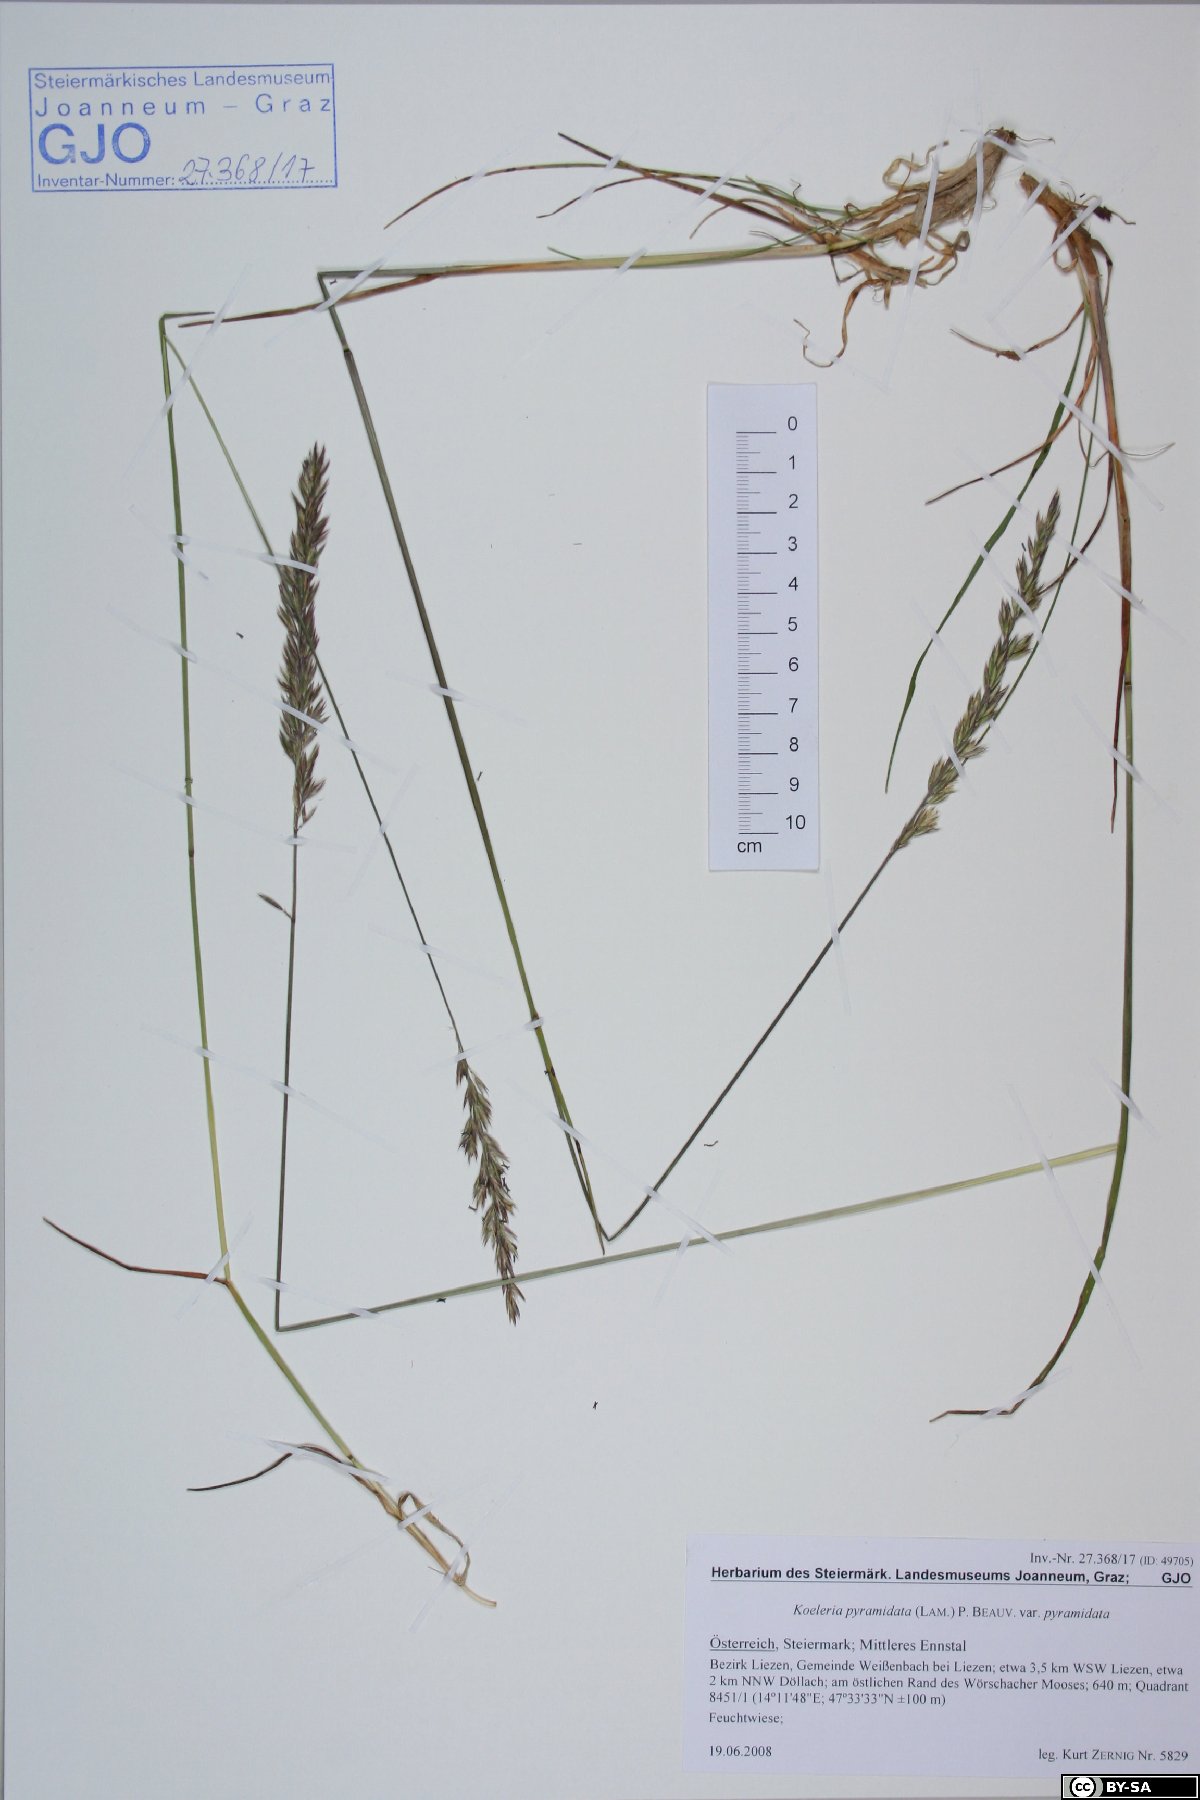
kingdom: Plantae
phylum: Tracheophyta
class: Liliopsida
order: Poales
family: Poaceae
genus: Koeleria
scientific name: Koeleria pyramidata
